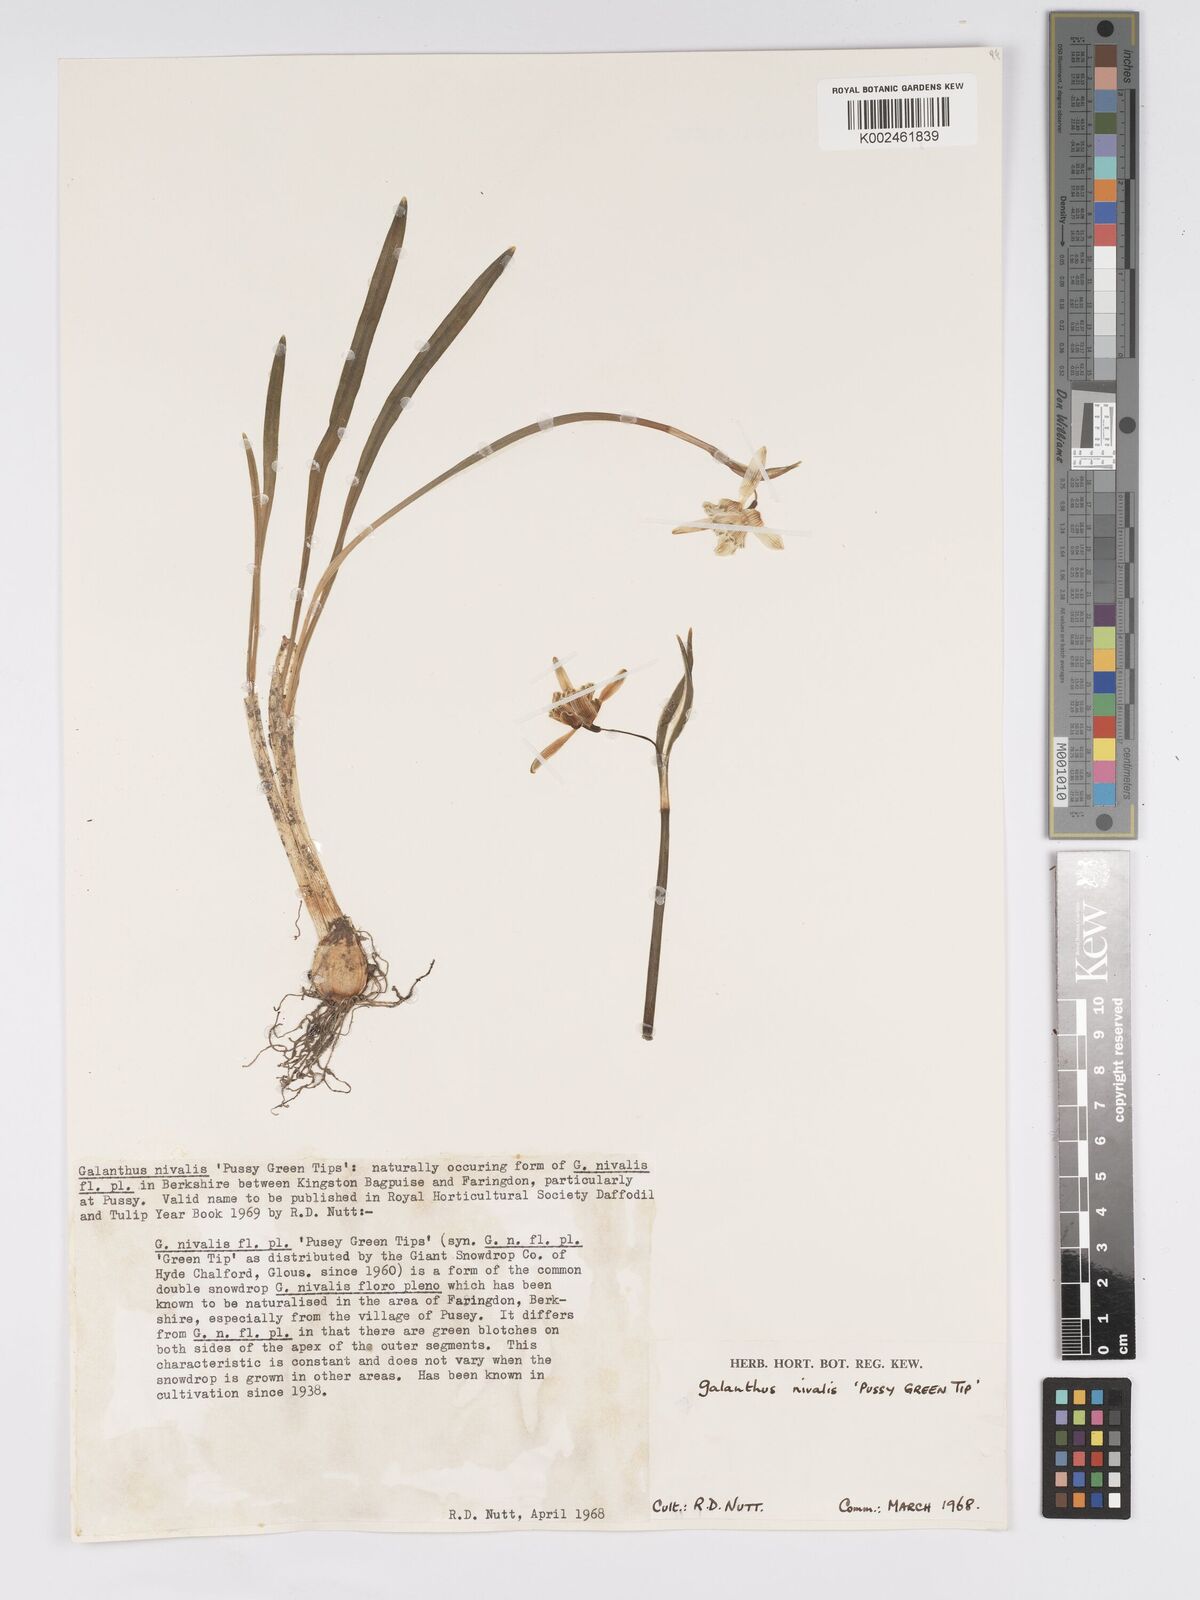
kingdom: Plantae
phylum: Tracheophyta
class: Liliopsida
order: Asparagales
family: Amaryllidaceae
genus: Galanthus
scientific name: Galanthus
